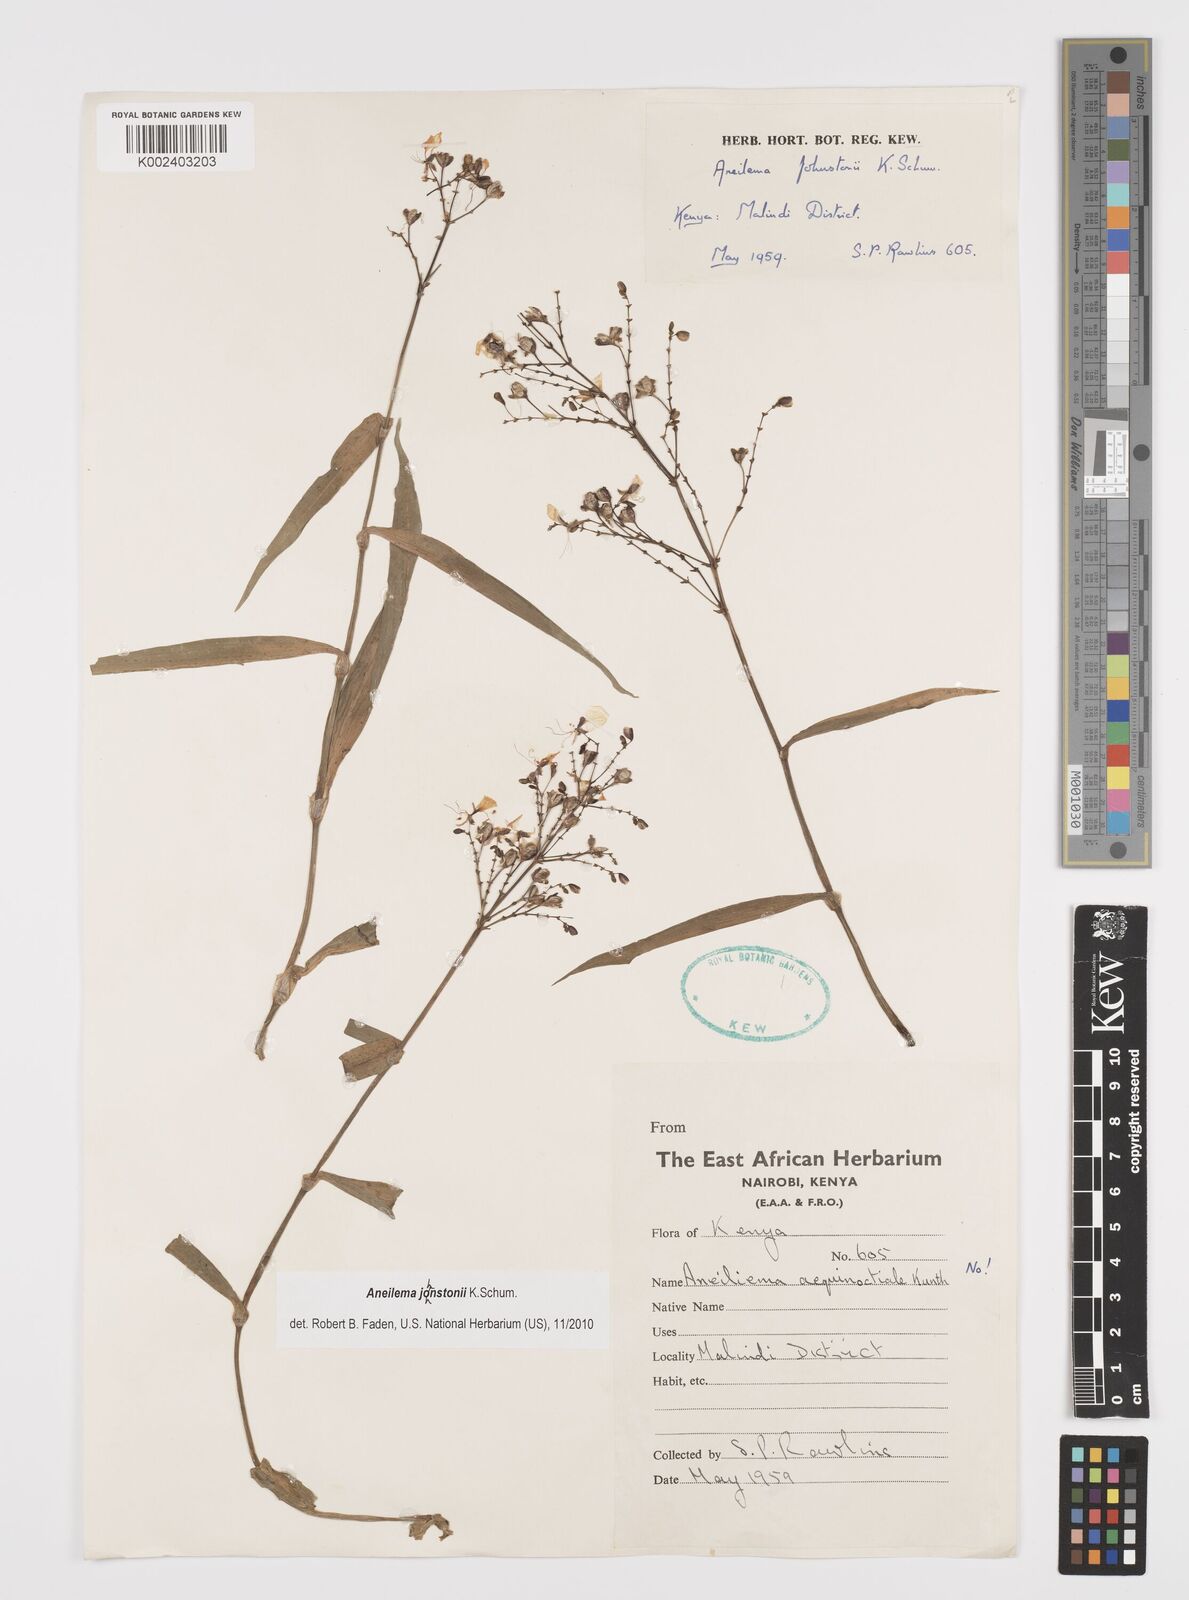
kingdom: Plantae
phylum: Tracheophyta
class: Liliopsida
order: Commelinales
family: Commelinaceae
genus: Aneilema
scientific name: Aneilema johnstonii
